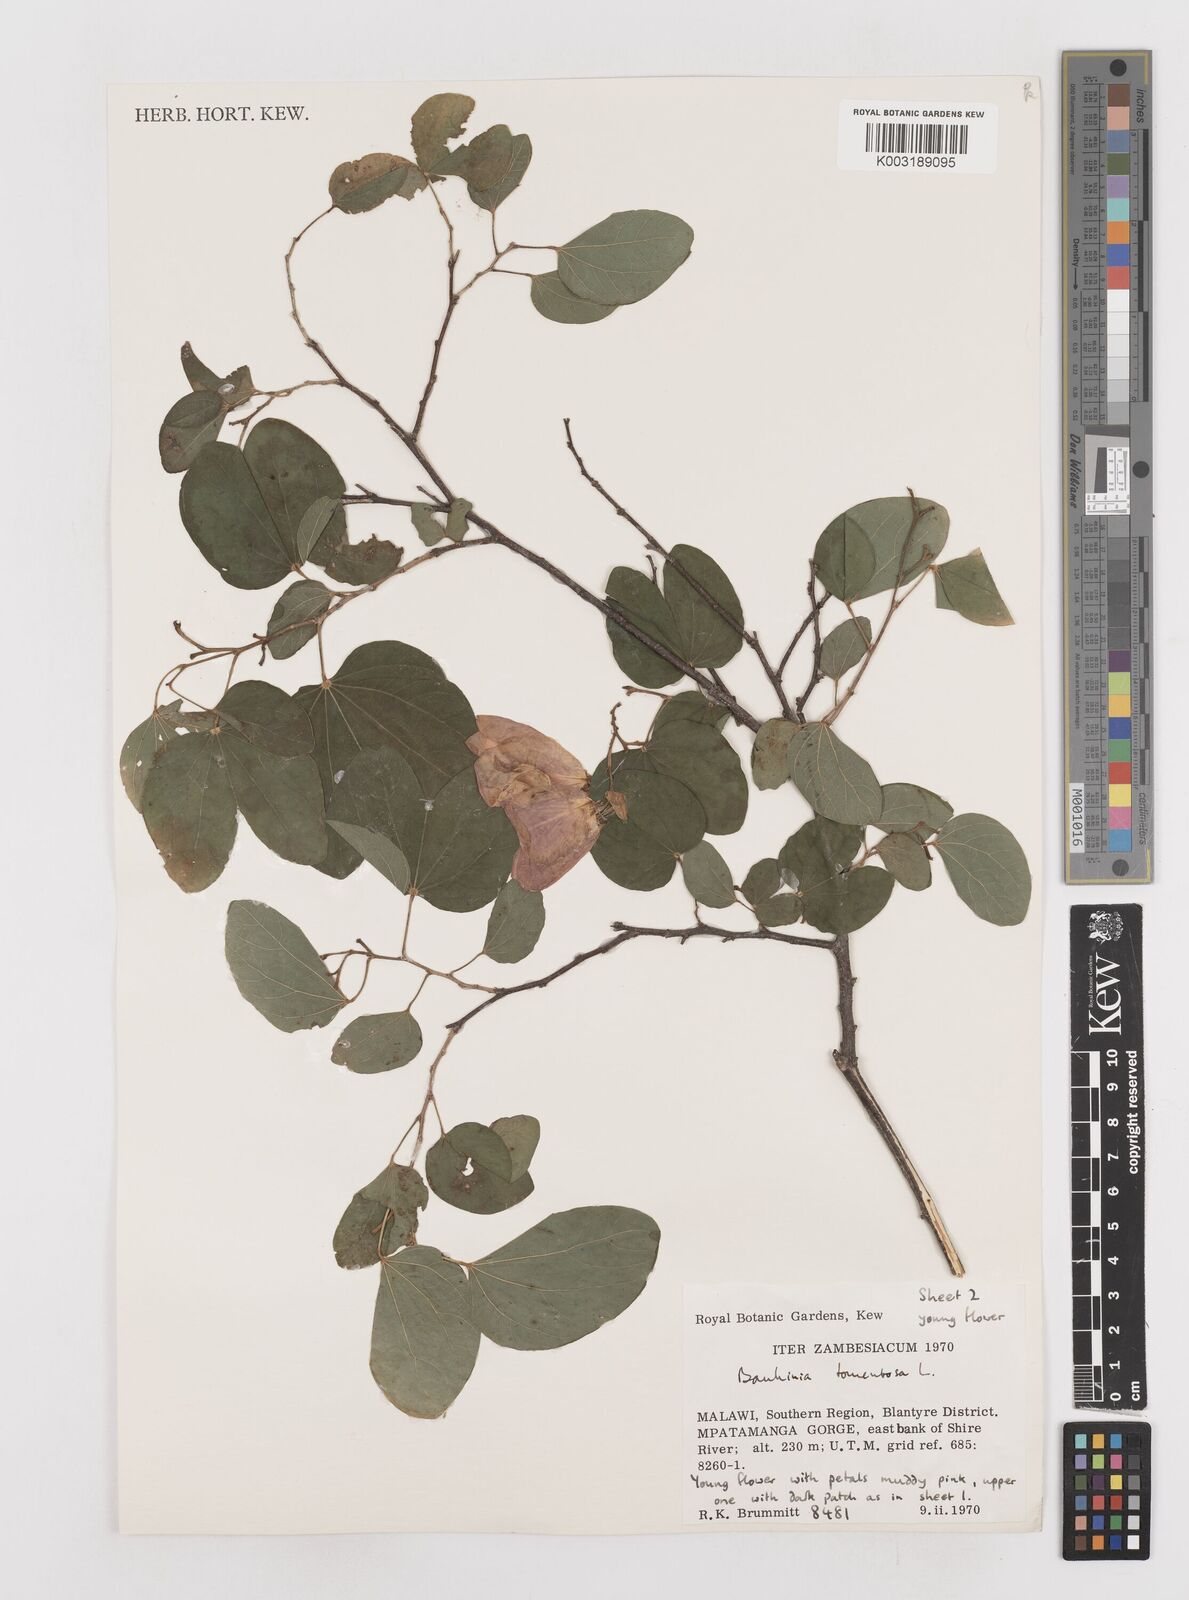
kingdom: Plantae
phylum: Tracheophyta
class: Magnoliopsida
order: Fabales
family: Fabaceae
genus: Bauhinia
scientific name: Bauhinia tomentosa
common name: Bell bauhinia
